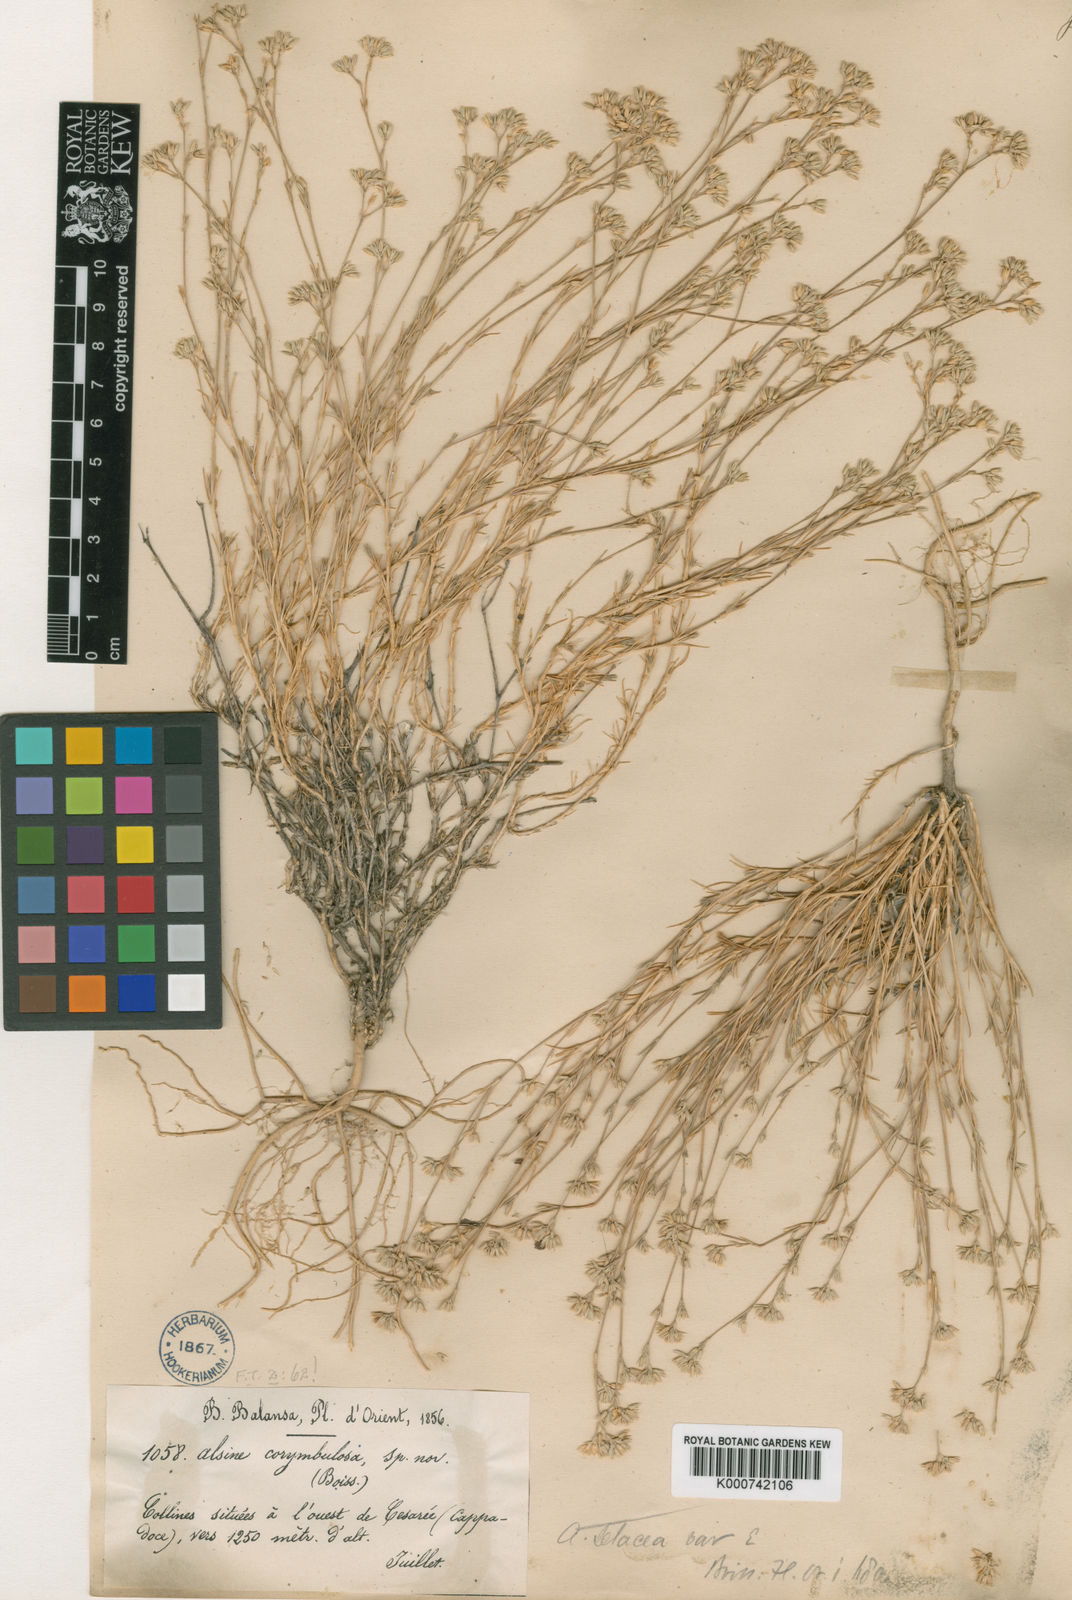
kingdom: Plantae
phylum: Tracheophyta
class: Magnoliopsida
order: Caryophyllales
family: Caryophyllaceae
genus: Minuartia
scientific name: Minuartia corymbulosa
